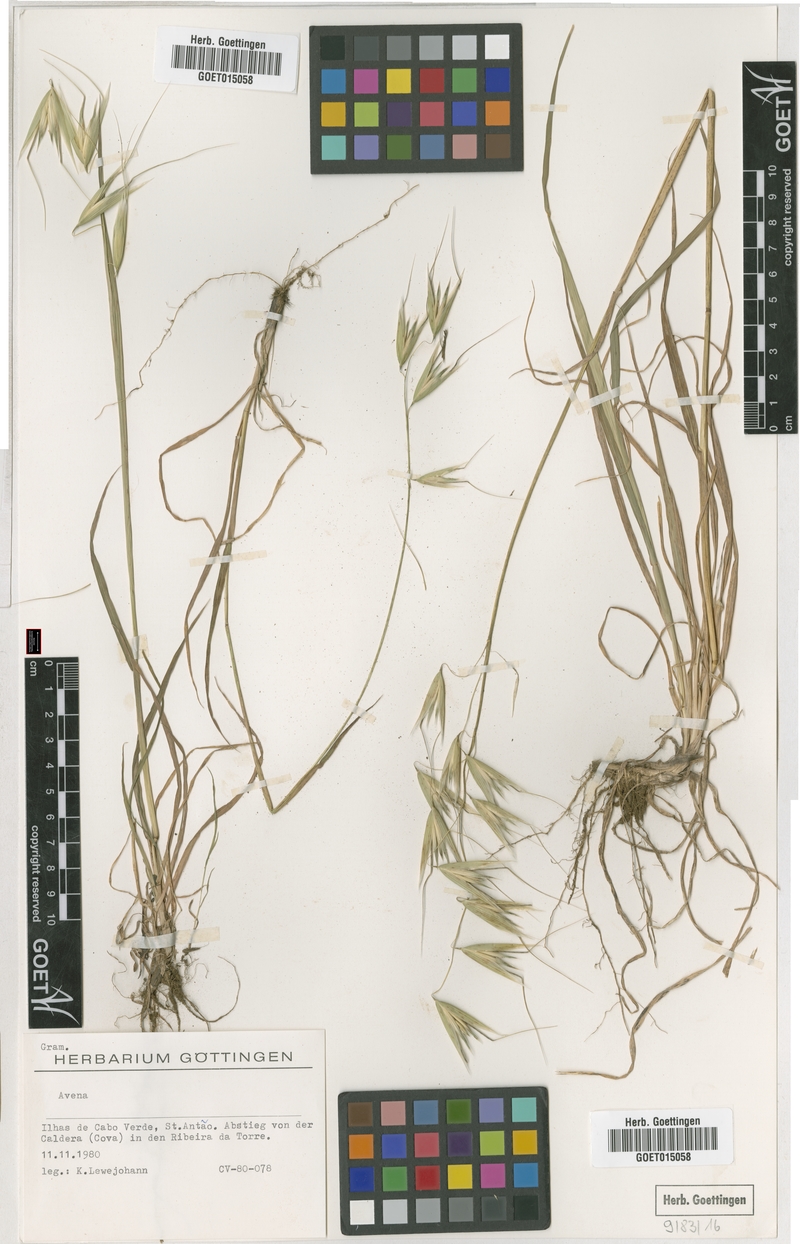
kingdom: Plantae
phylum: Tracheophyta
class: Liliopsida
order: Poales
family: Poaceae
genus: Avena
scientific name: Avena
